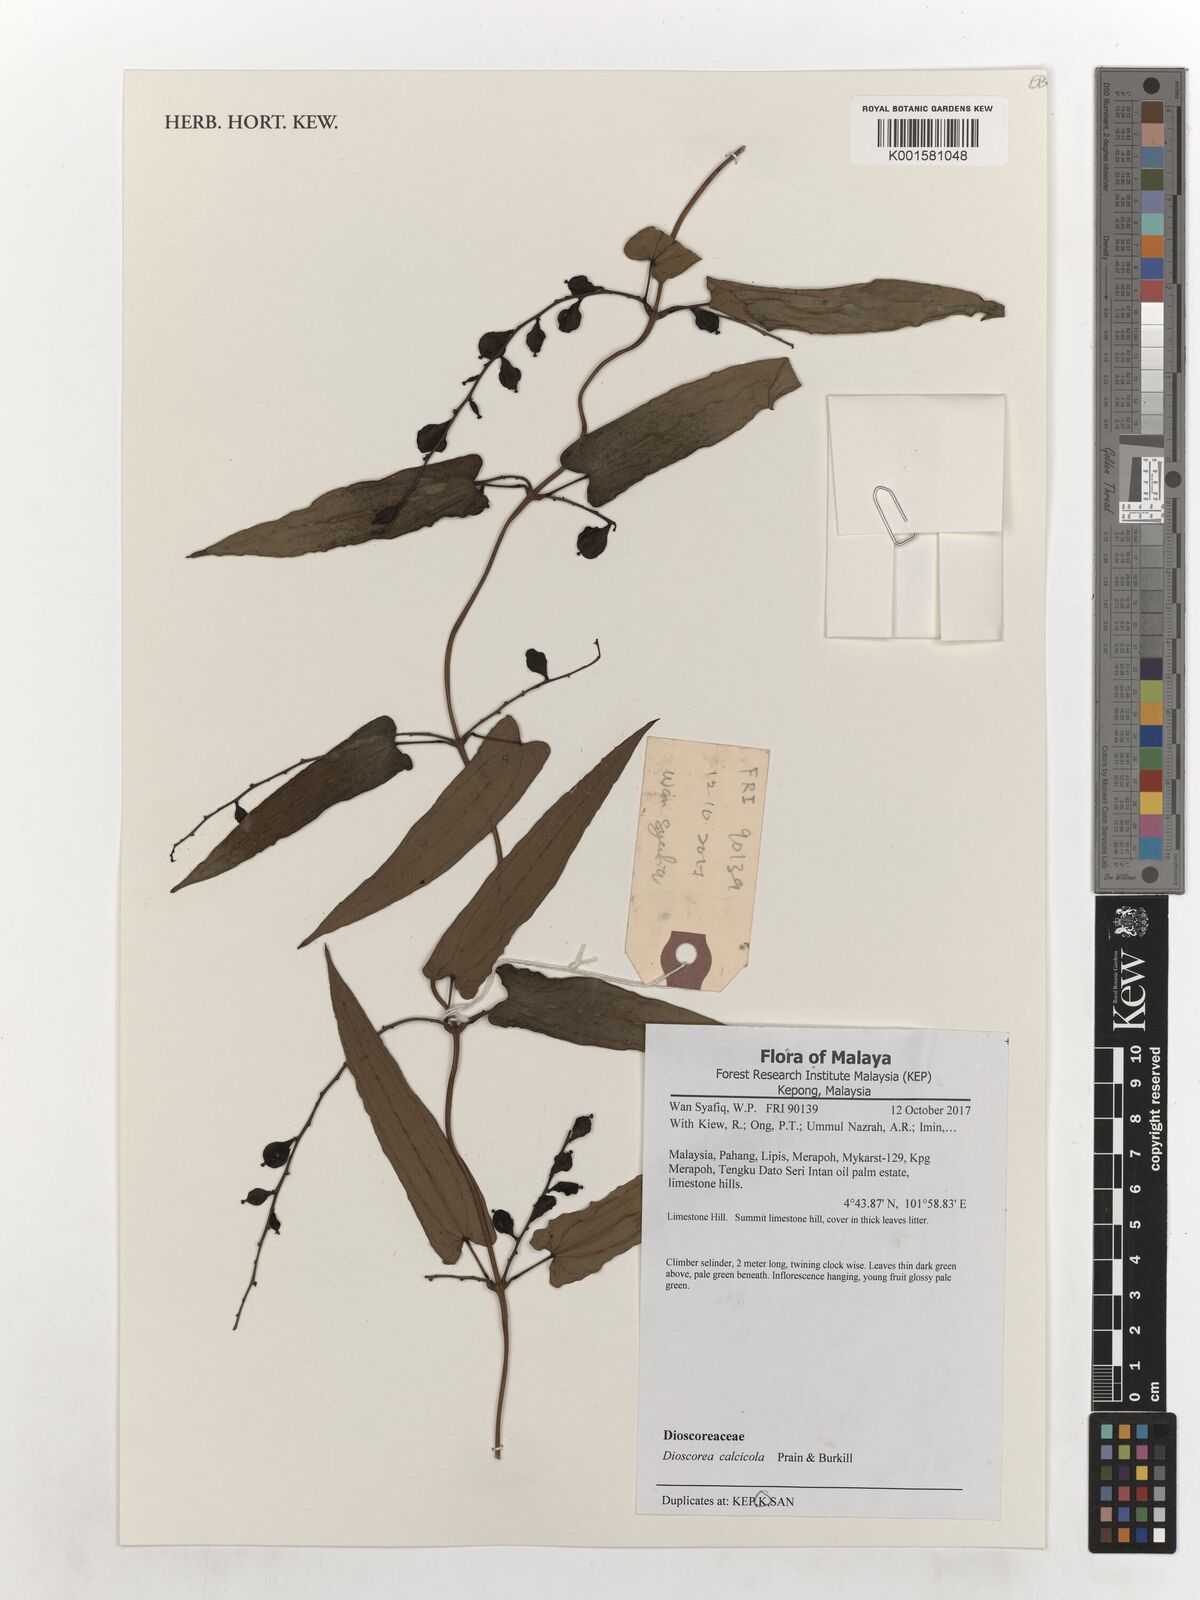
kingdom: Plantae
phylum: Tracheophyta
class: Liliopsida
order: Dioscoreales
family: Dioscoreaceae
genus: Dioscorea
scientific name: Dioscorea calcicola
